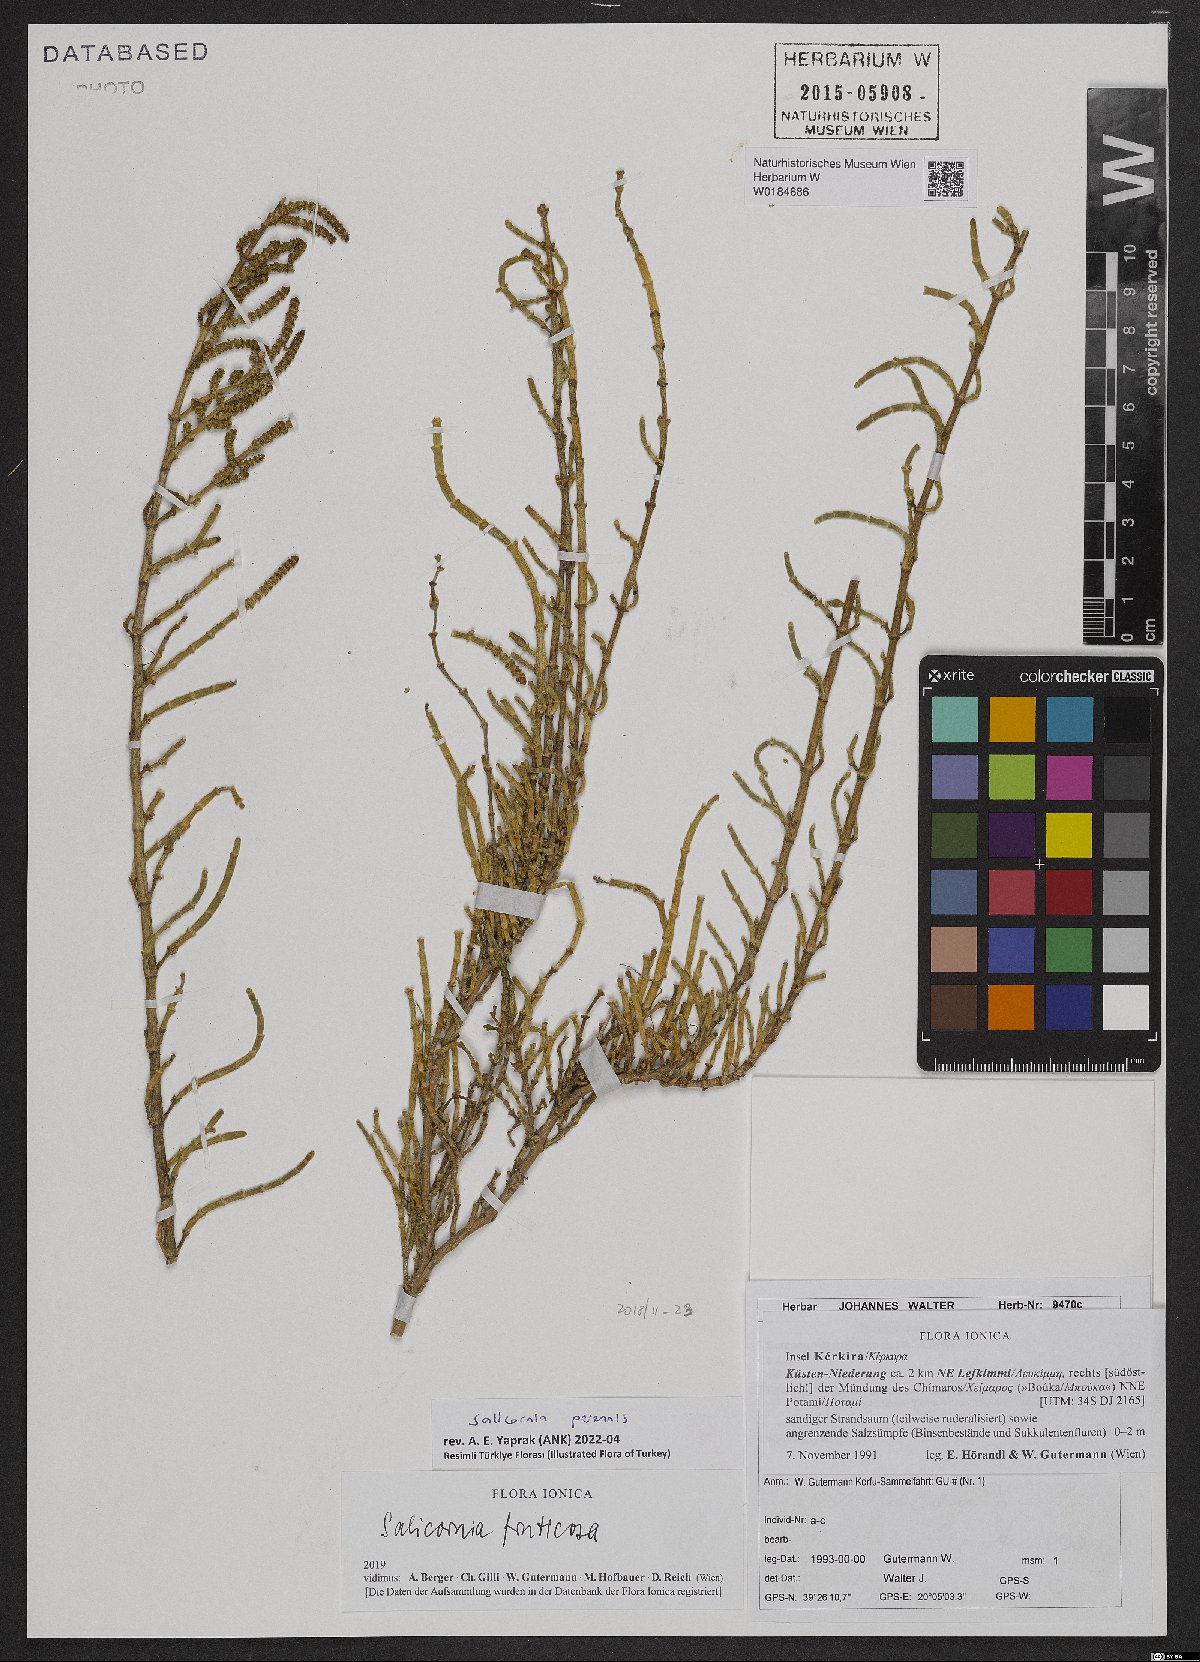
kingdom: Plantae
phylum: Tracheophyta
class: Magnoliopsida
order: Caryophyllales
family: Amaranthaceae
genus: Salicornia
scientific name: Salicornia perennis
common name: Chicken claws
